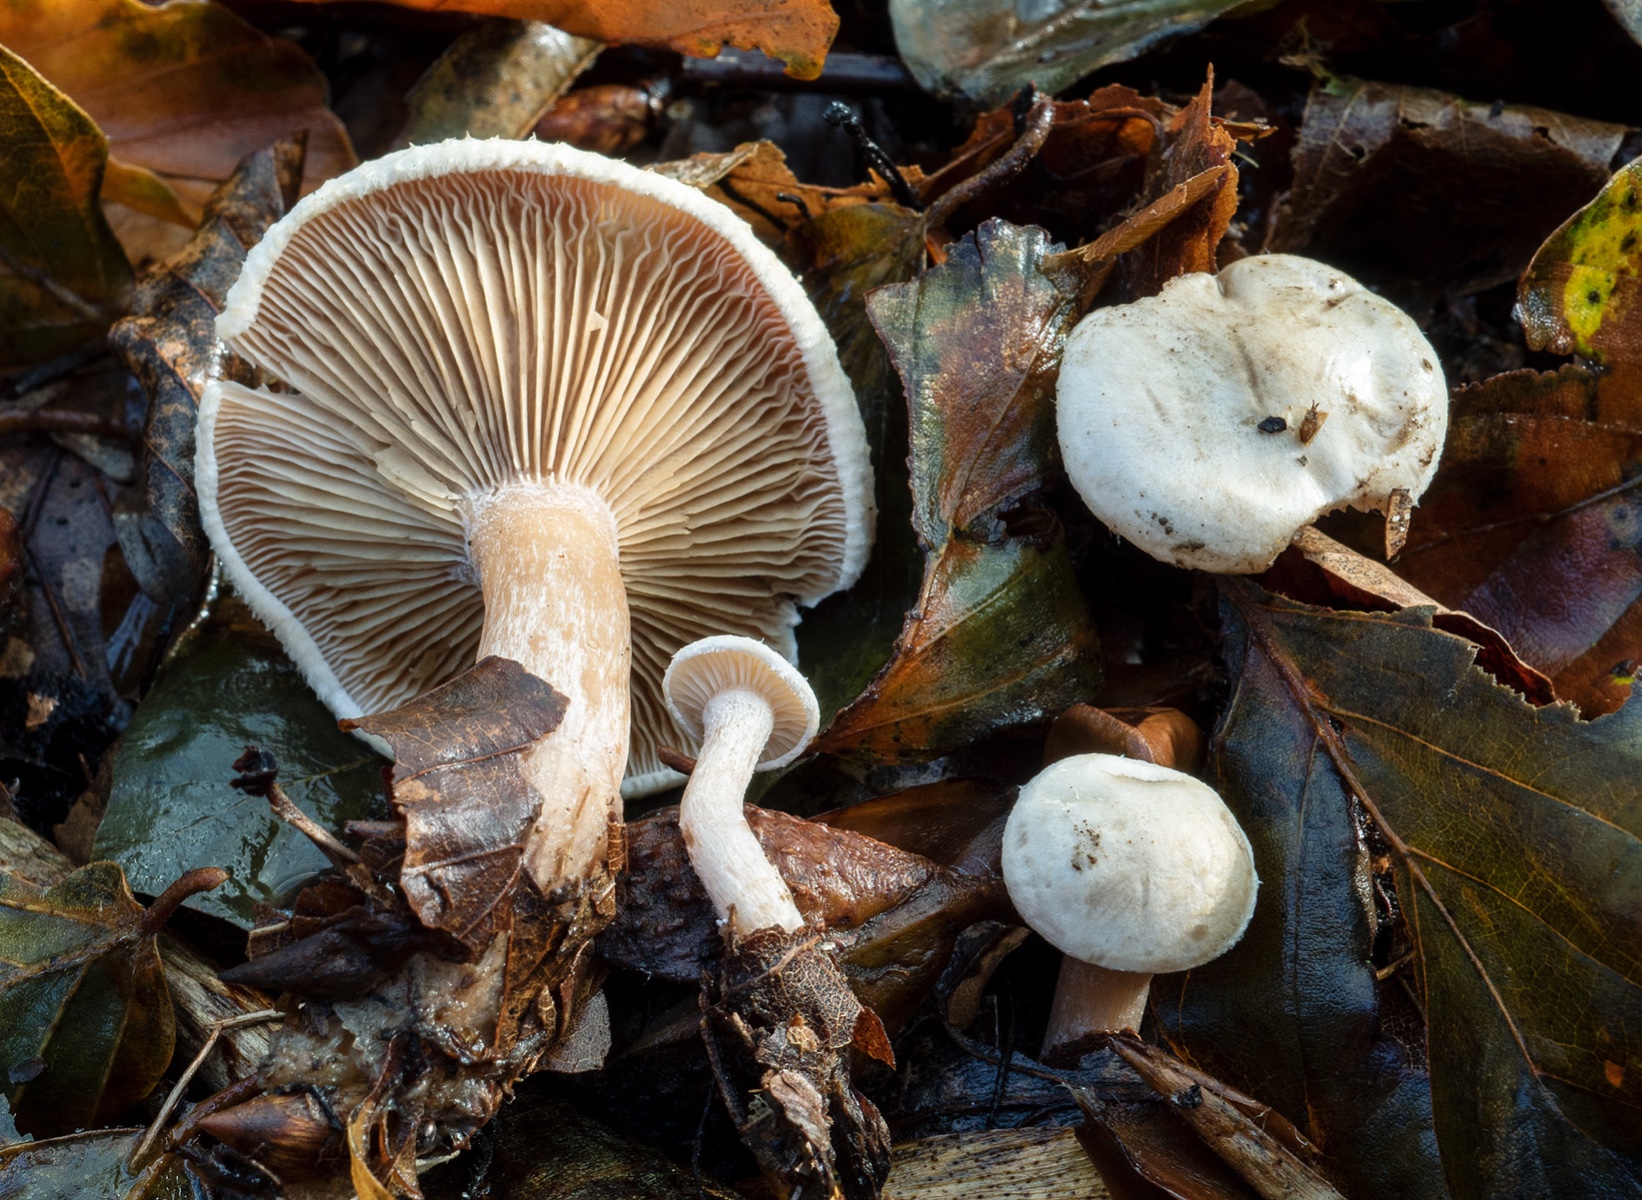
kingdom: Fungi
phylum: Basidiomycota
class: Agaricomycetes
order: Agaricales
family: Tricholomataceae
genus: Ripartites
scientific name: Ripartites tricholoma
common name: almindelig skæghat
